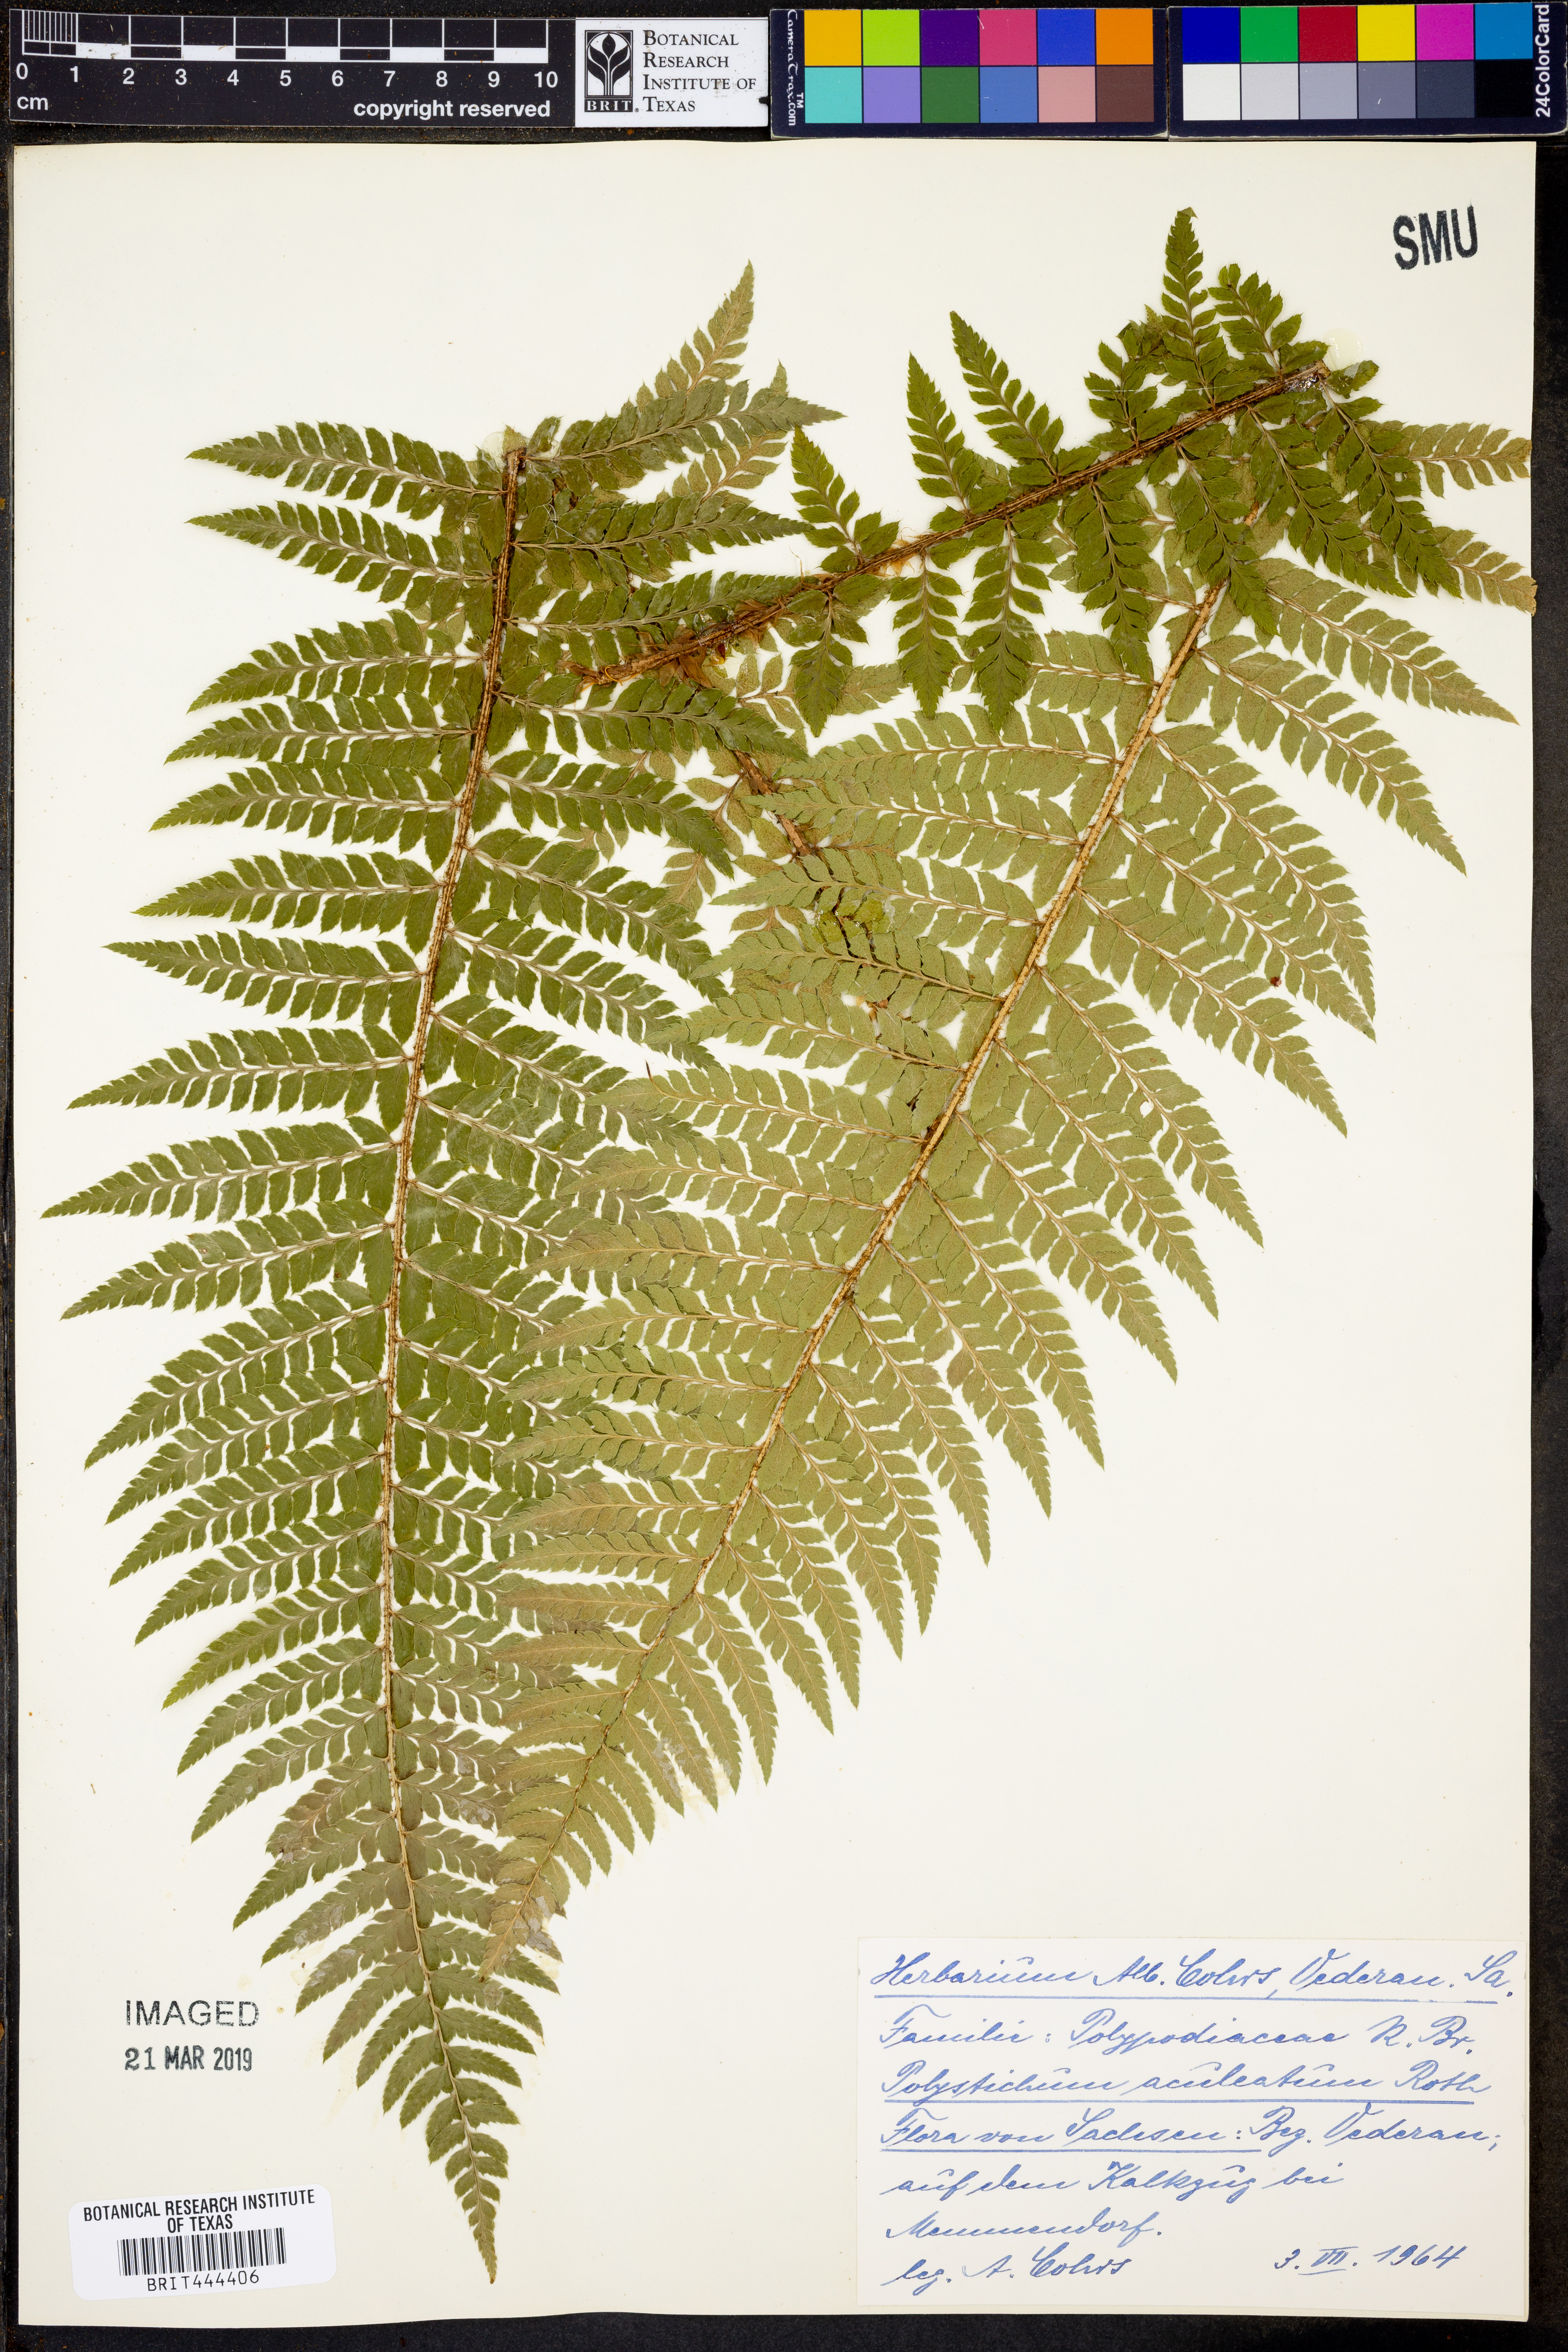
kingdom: Plantae
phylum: Tracheophyta
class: Polypodiopsida
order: Polypodiales
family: Dryopteridaceae
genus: Polystichum
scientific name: Polystichum aculeatum
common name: Hard shield-fern
